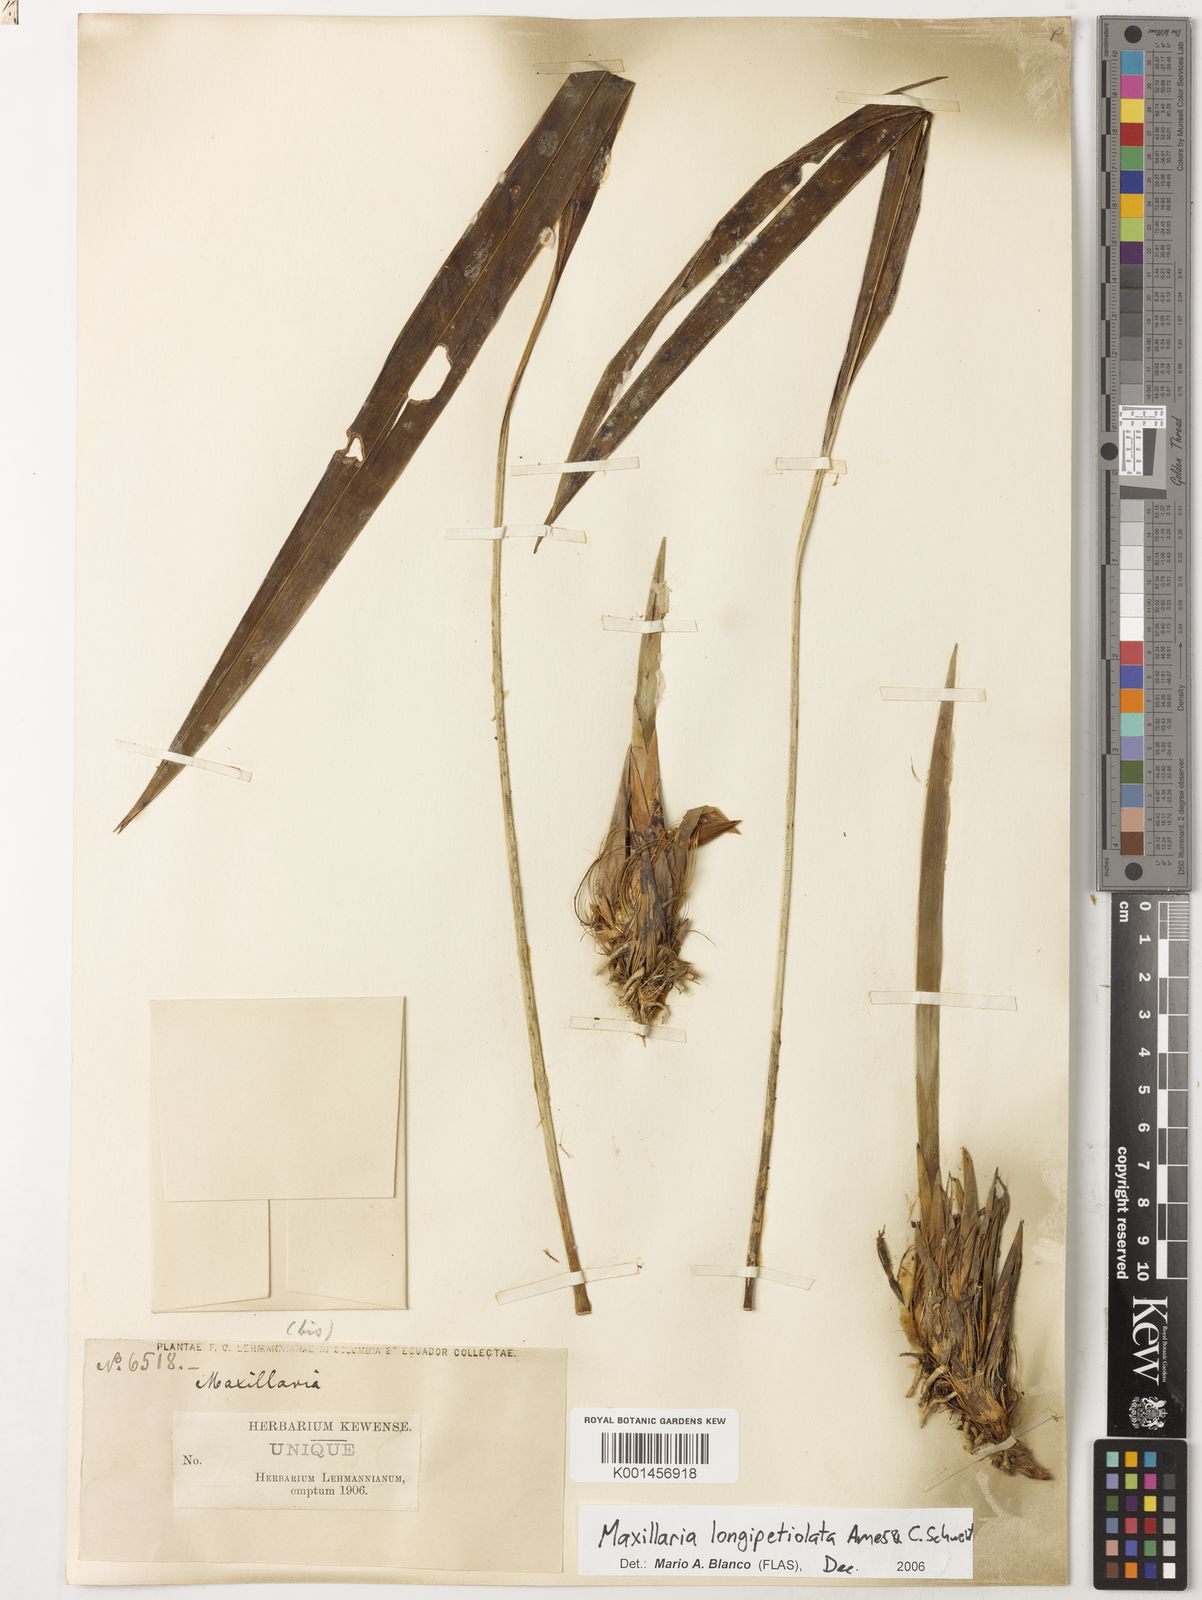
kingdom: Plantae
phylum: Tracheophyta
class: Liliopsida
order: Asparagales
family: Orchidaceae
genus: Maxillaria
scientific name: Maxillaria longipetiolata
